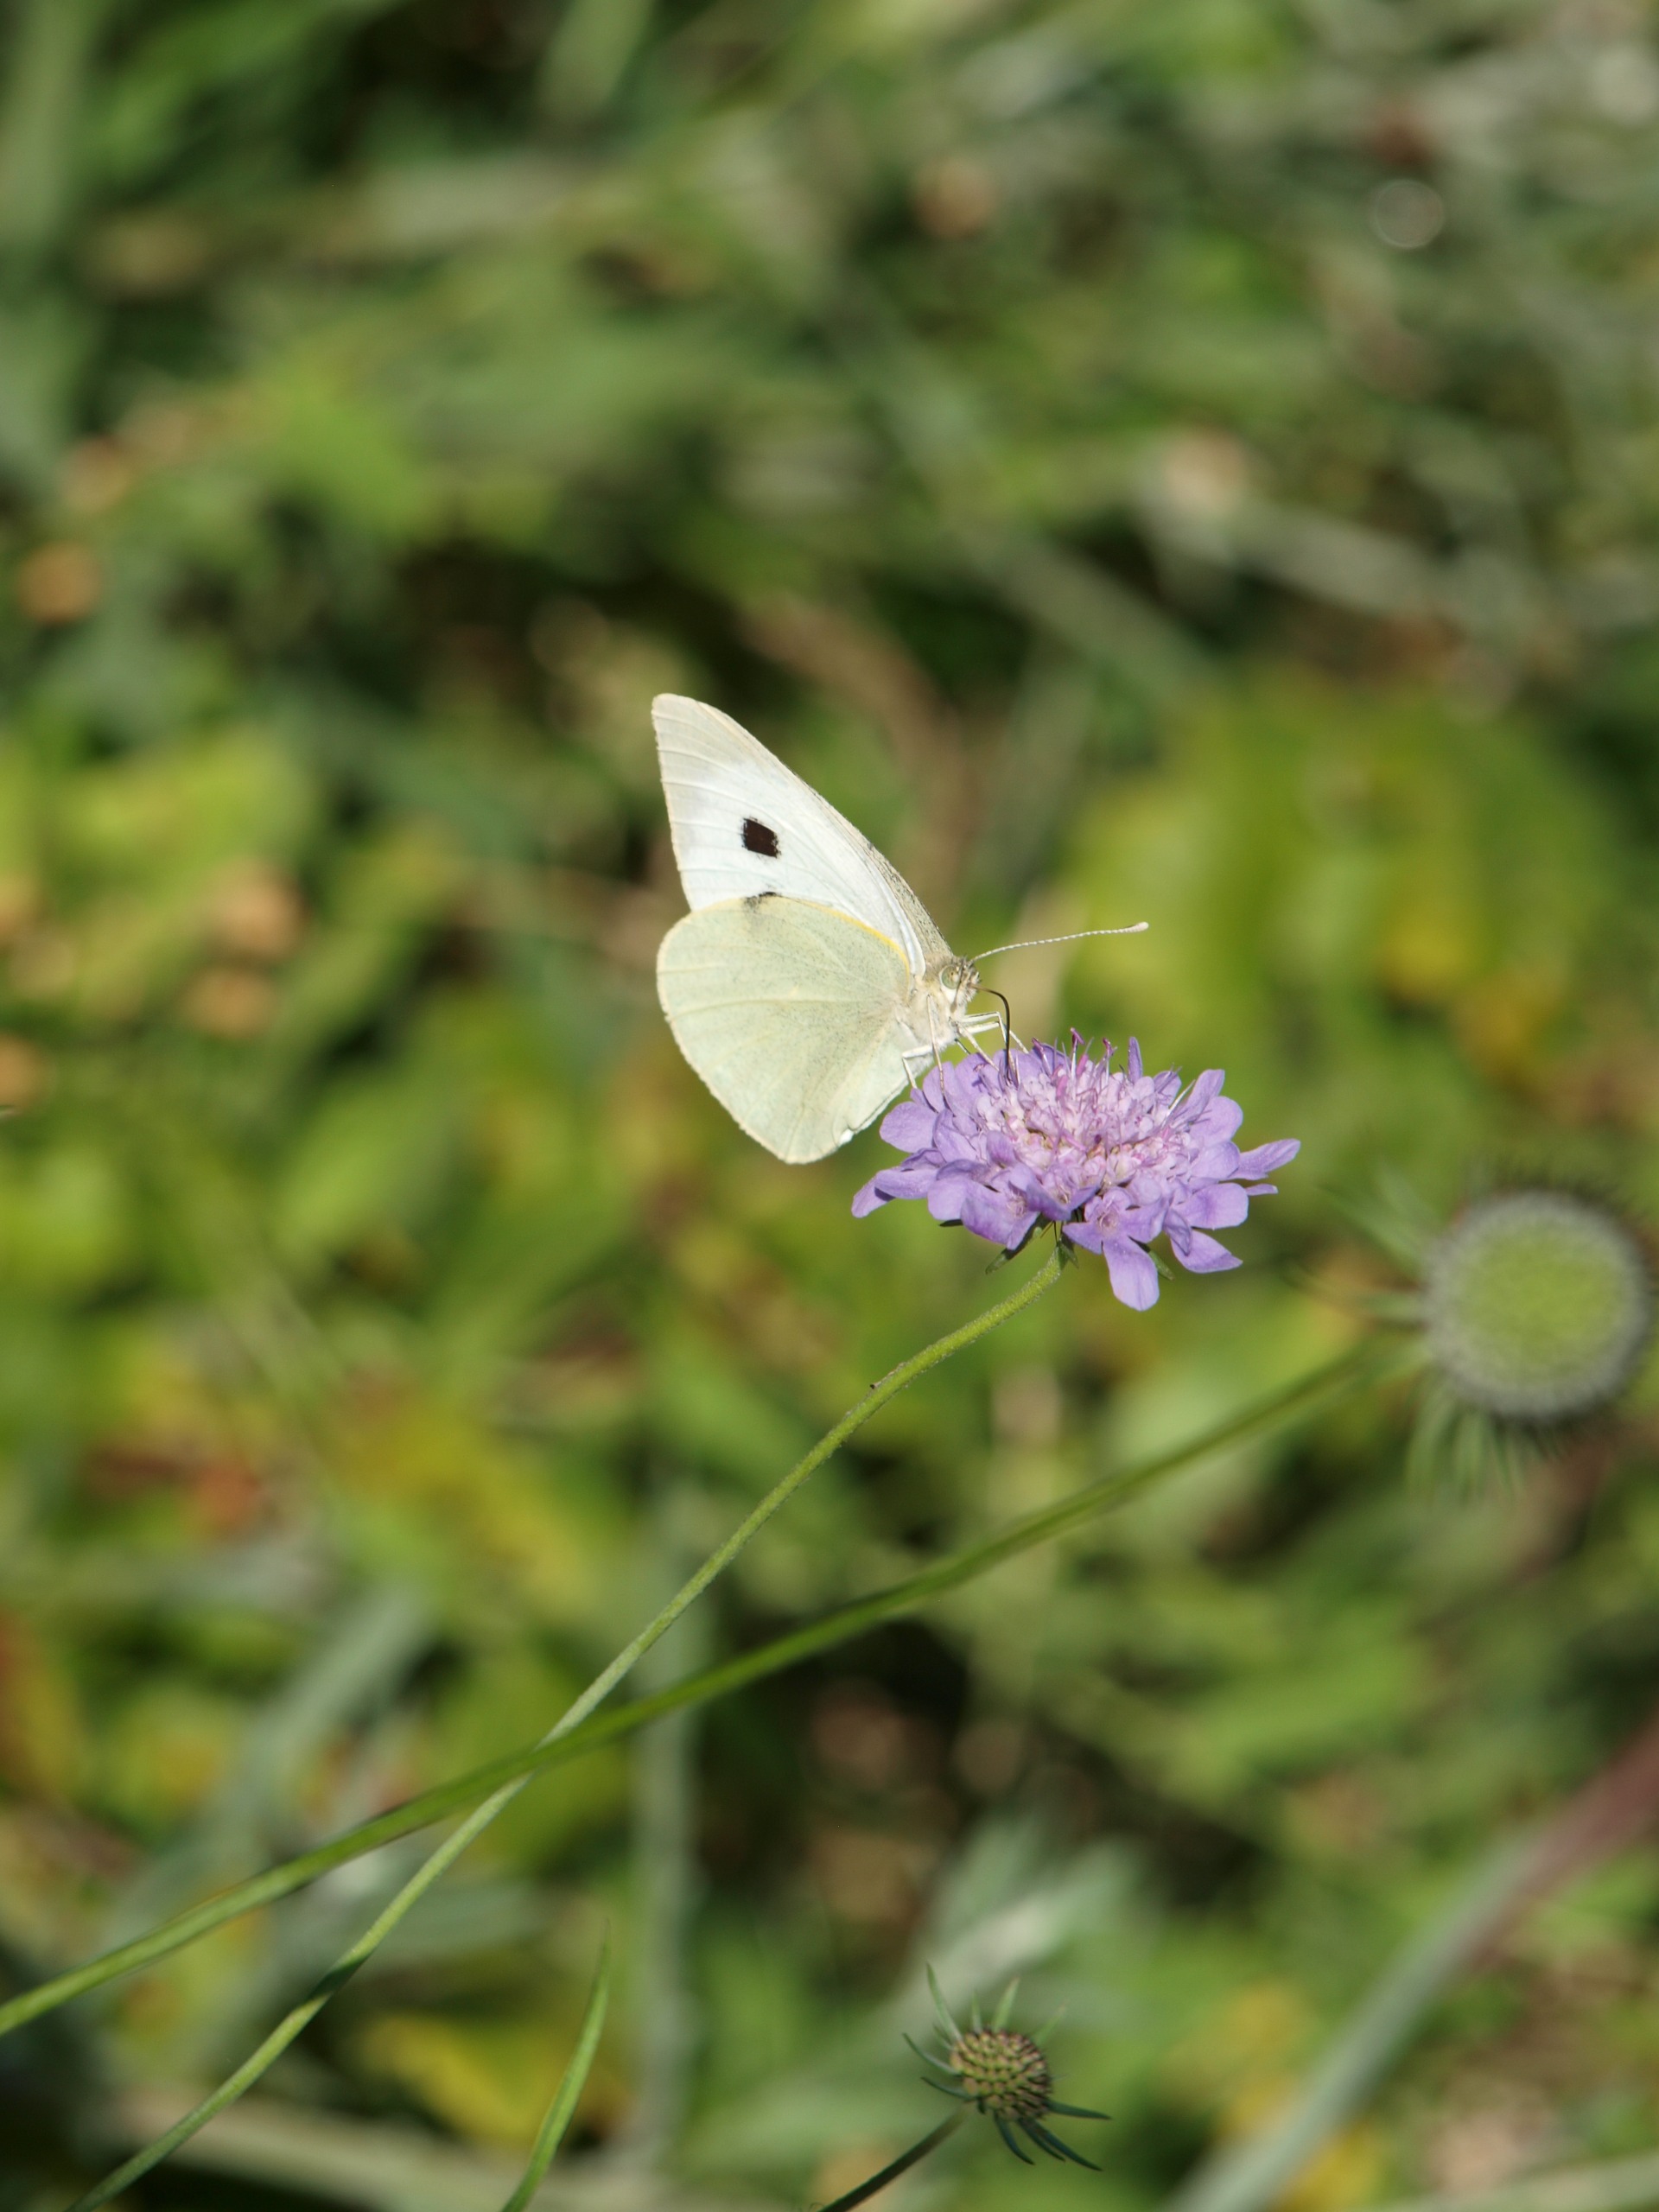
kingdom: Animalia
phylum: Arthropoda
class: Insecta
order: Lepidoptera
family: Pieridae
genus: Pieris
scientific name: Pieris brassicae
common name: Stor kålsommerfugl
